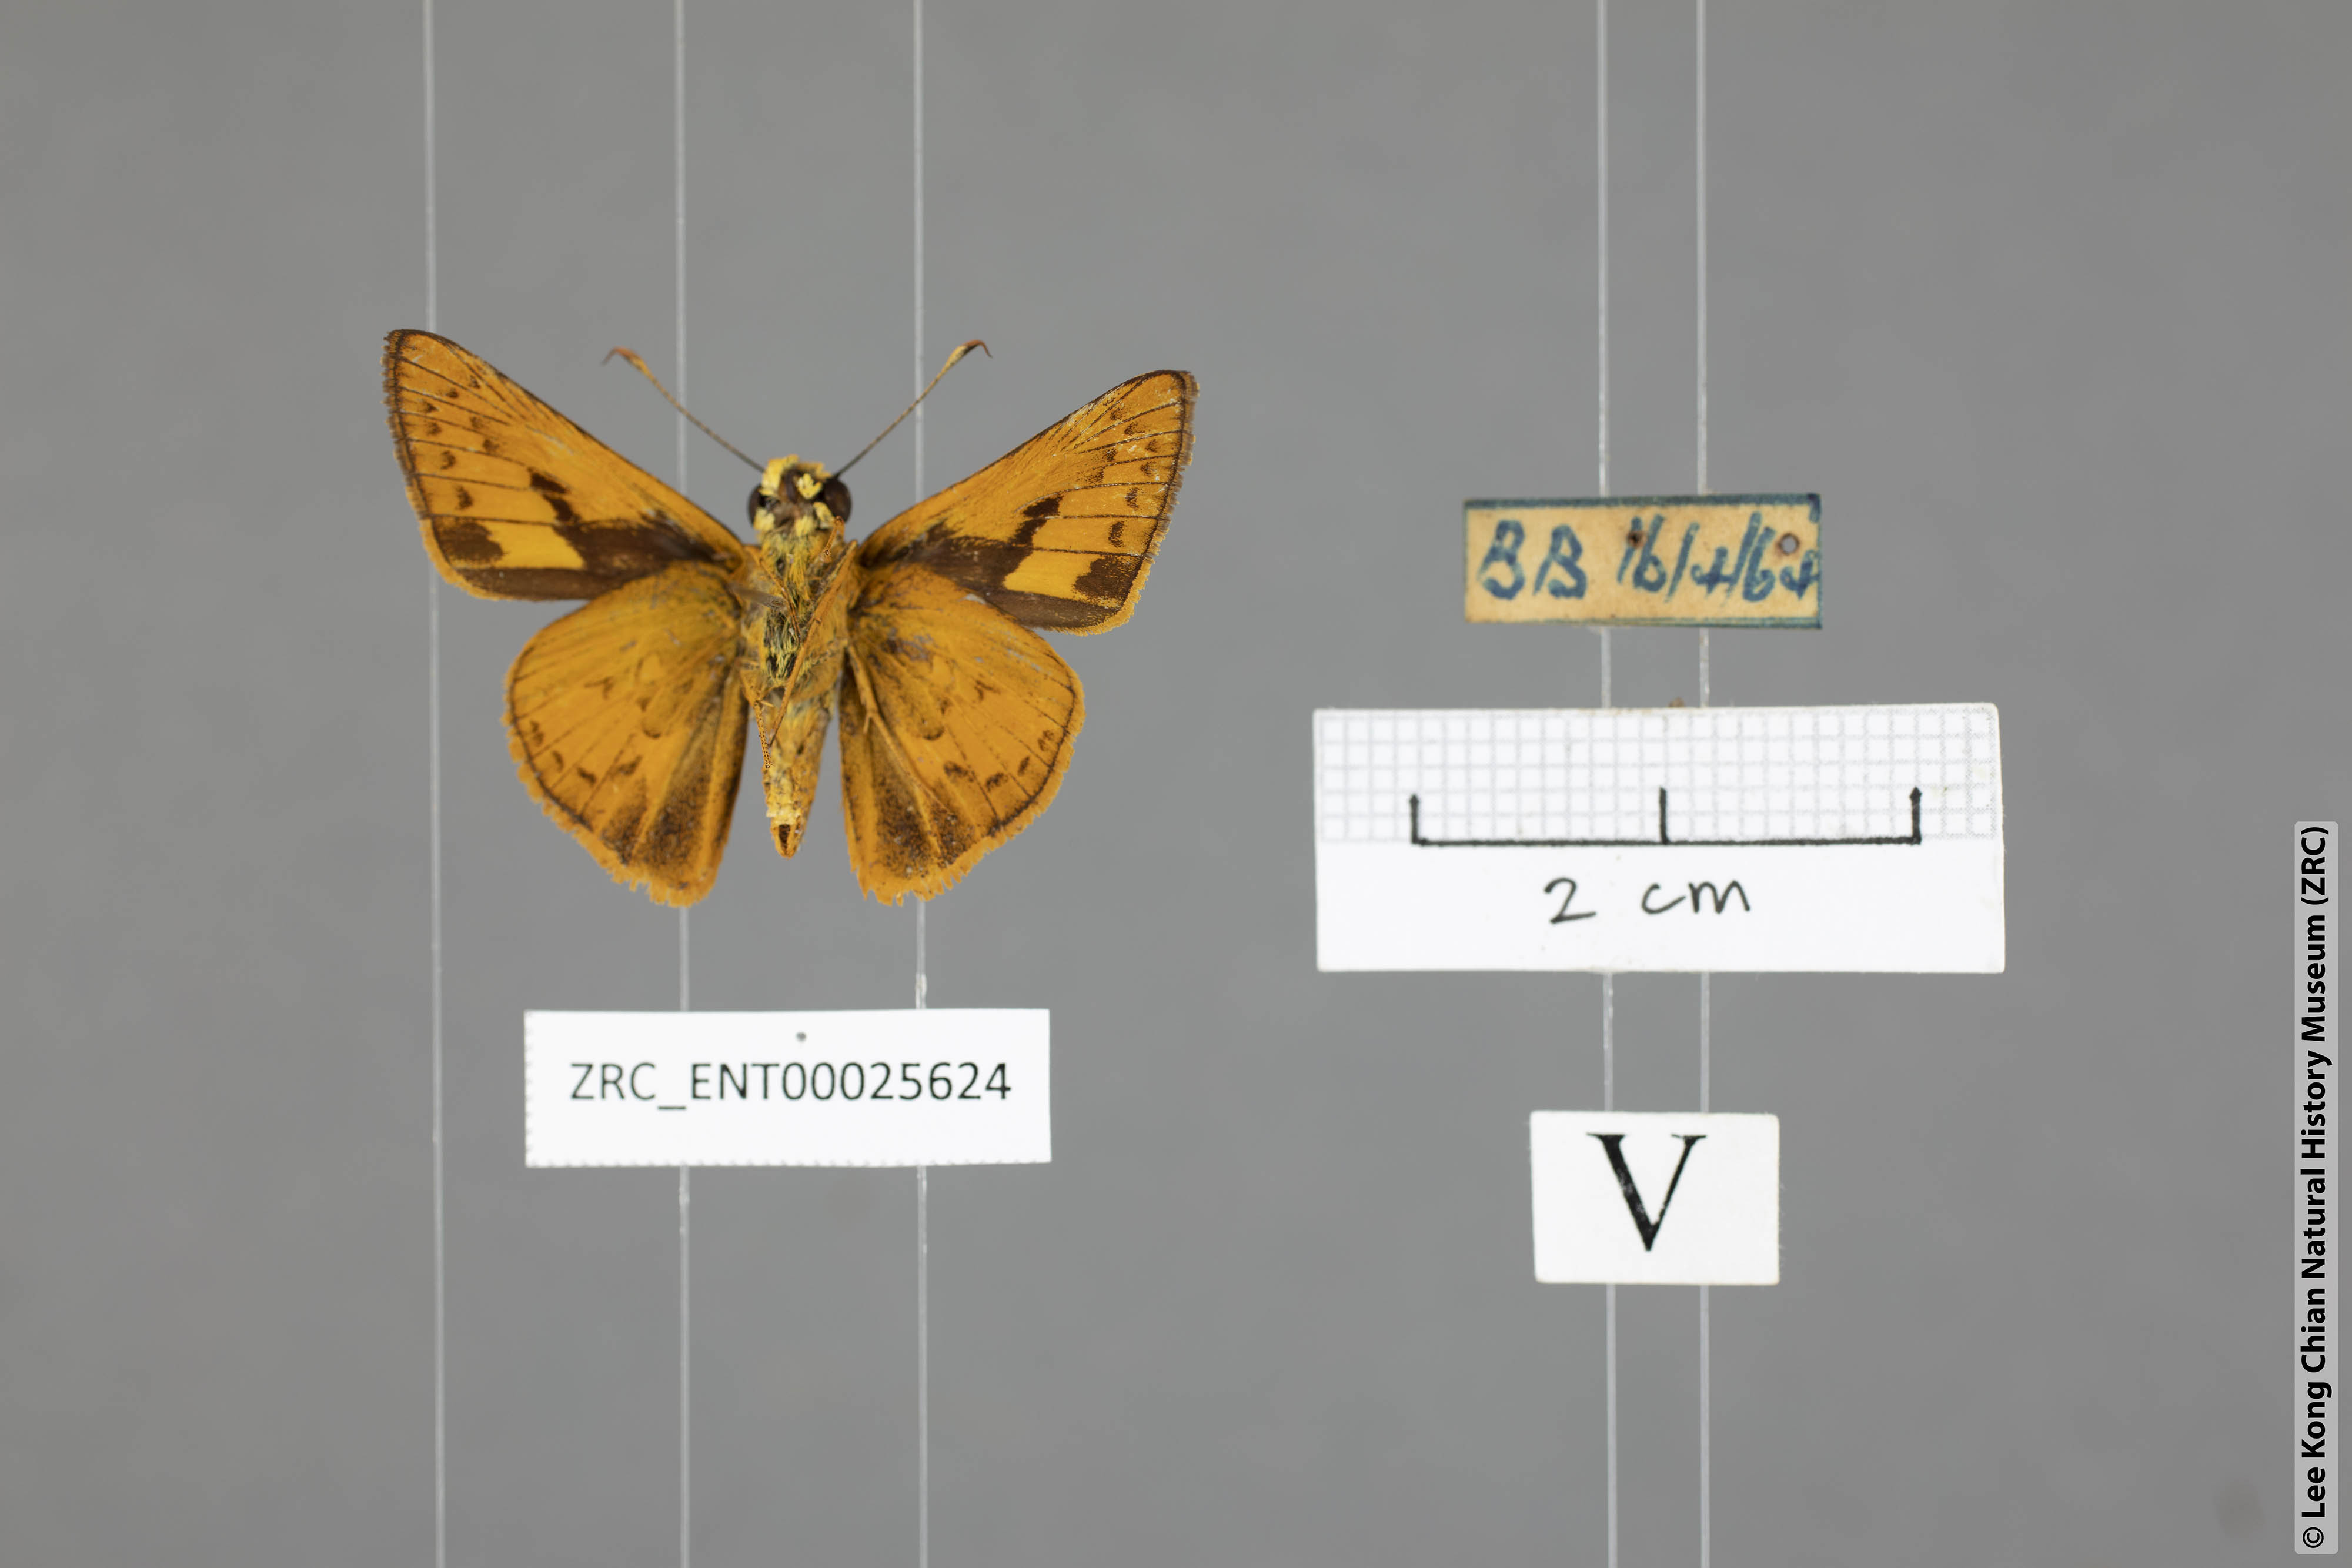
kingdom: Animalia
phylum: Arthropoda
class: Insecta
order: Lepidoptera
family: Hesperiidae
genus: Telicota
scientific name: Telicota augias
